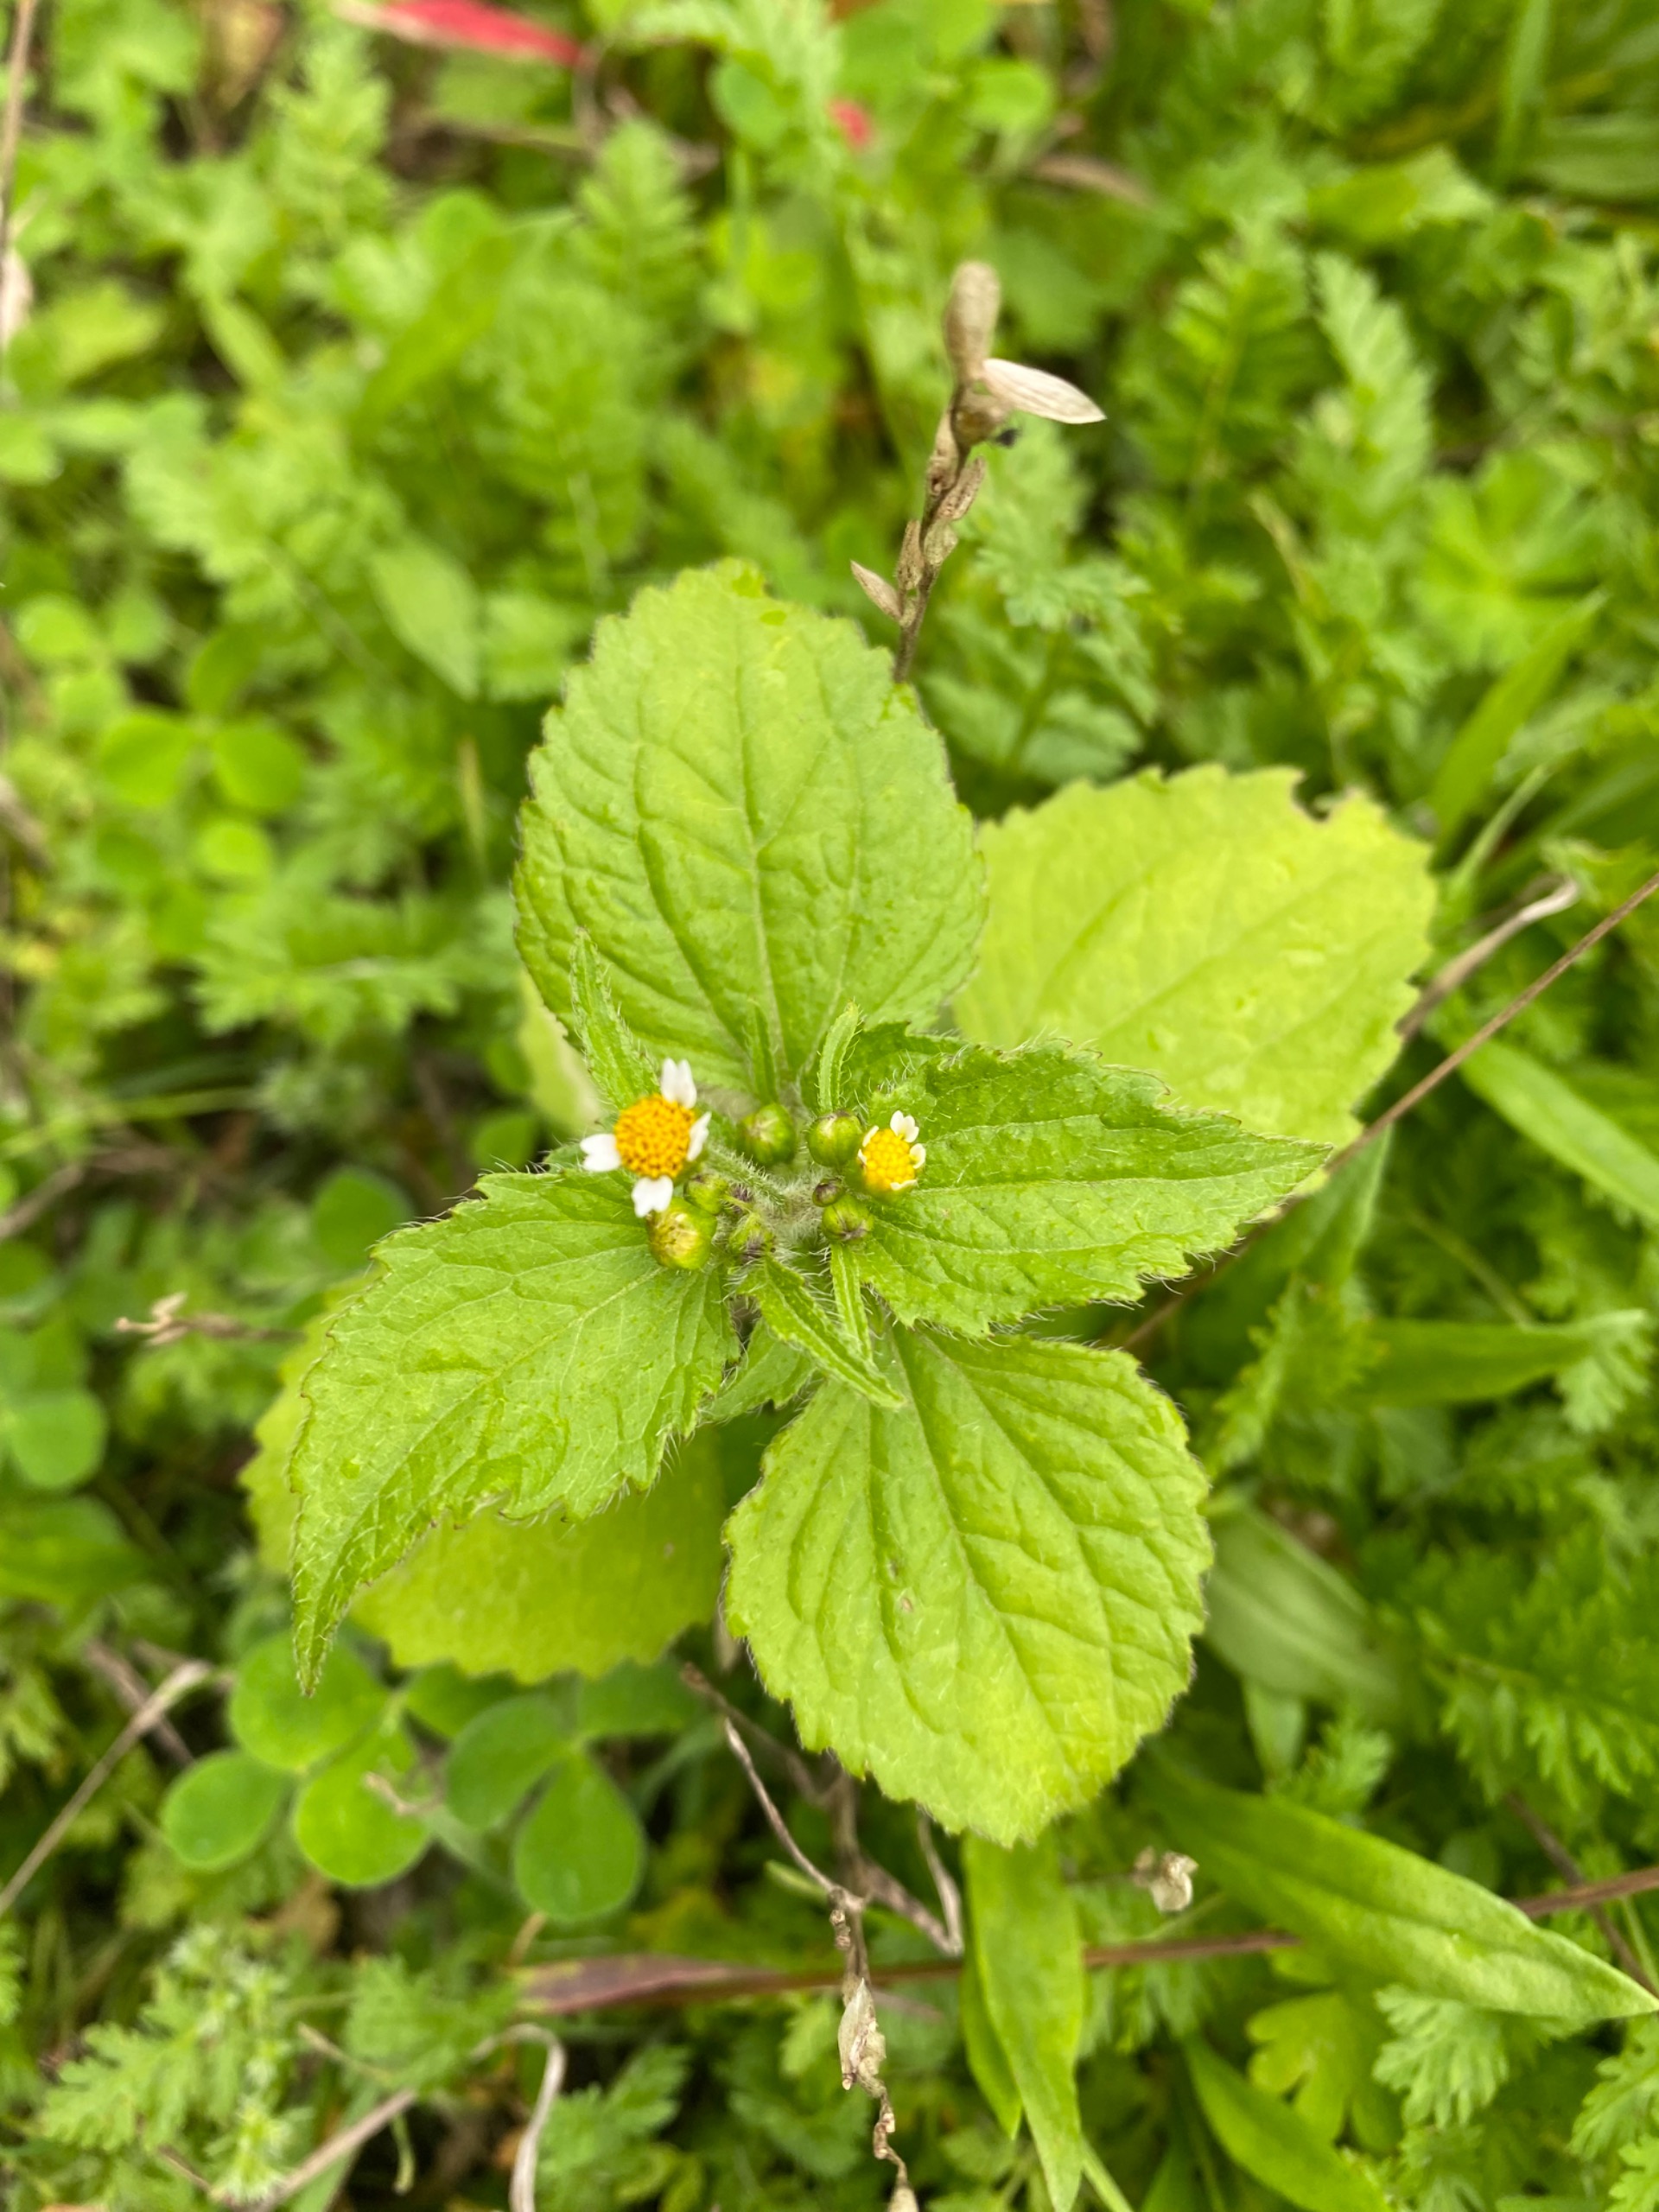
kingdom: Plantae
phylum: Tracheophyta
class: Magnoliopsida
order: Asterales
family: Asteraceae
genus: Galinsoga
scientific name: Galinsoga quadriradiata
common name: Kirtel-kortstråle
